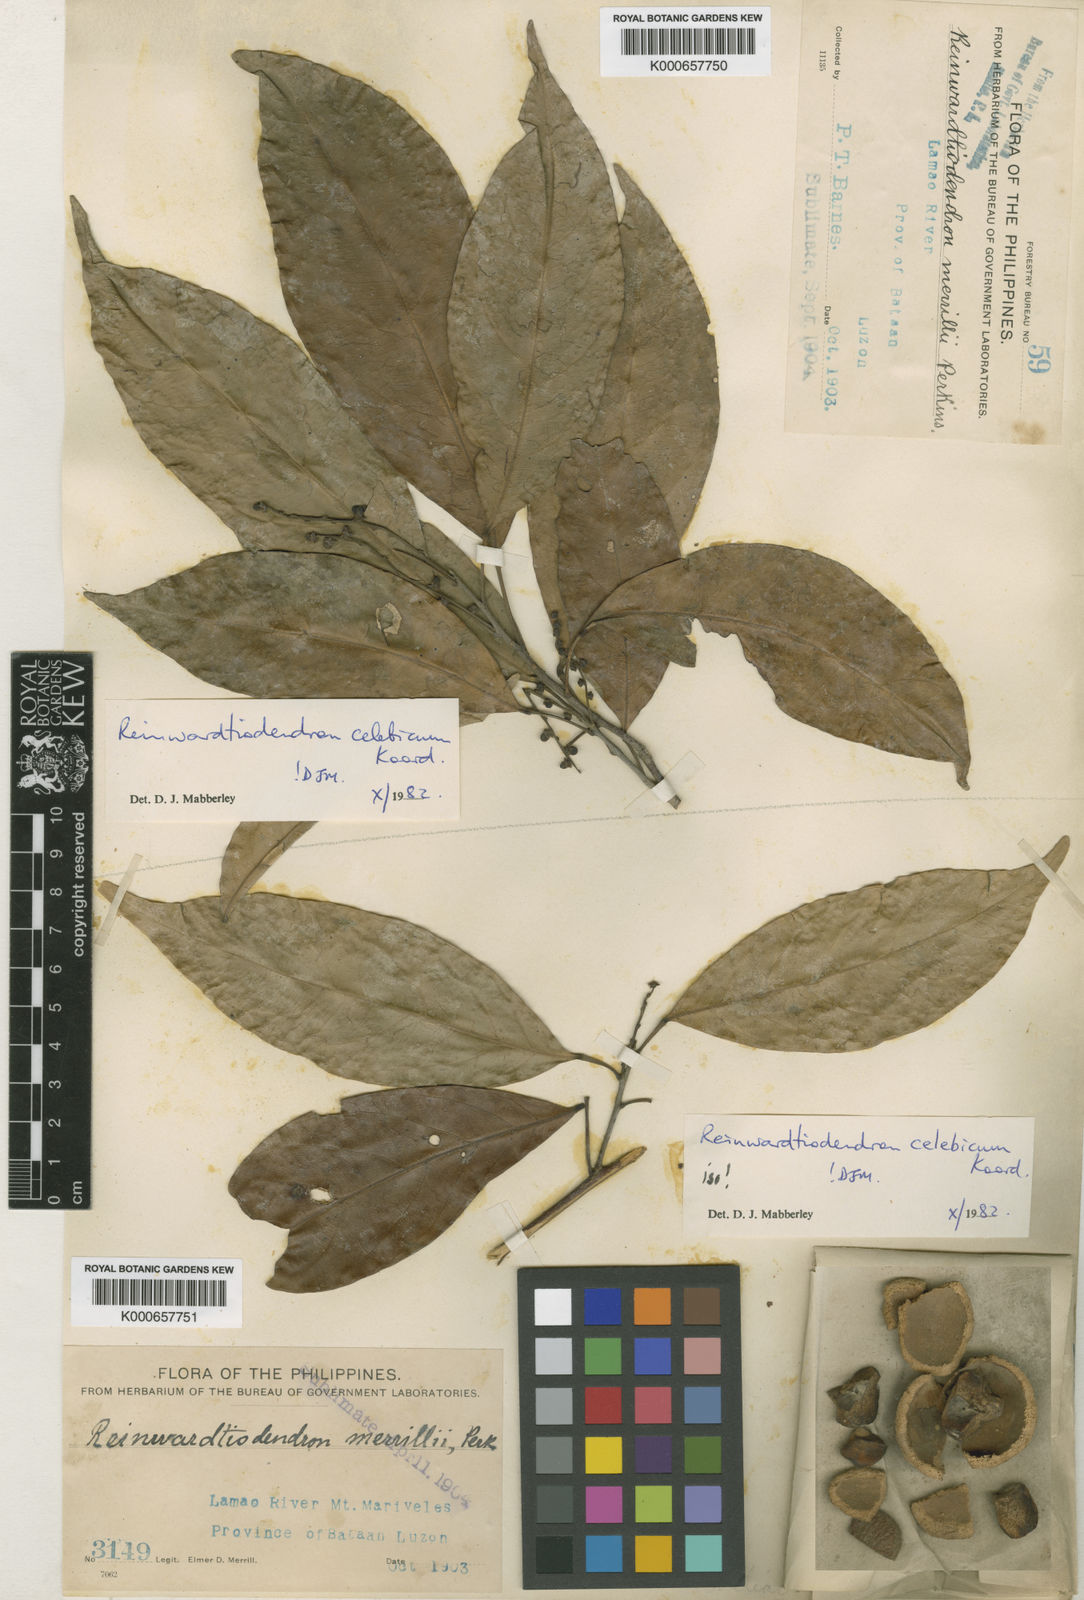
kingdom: Plantae
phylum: Tracheophyta
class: Magnoliopsida
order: Sapindales
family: Meliaceae
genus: Reinwardtiodendron
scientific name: Reinwardtiodendron celebicum
